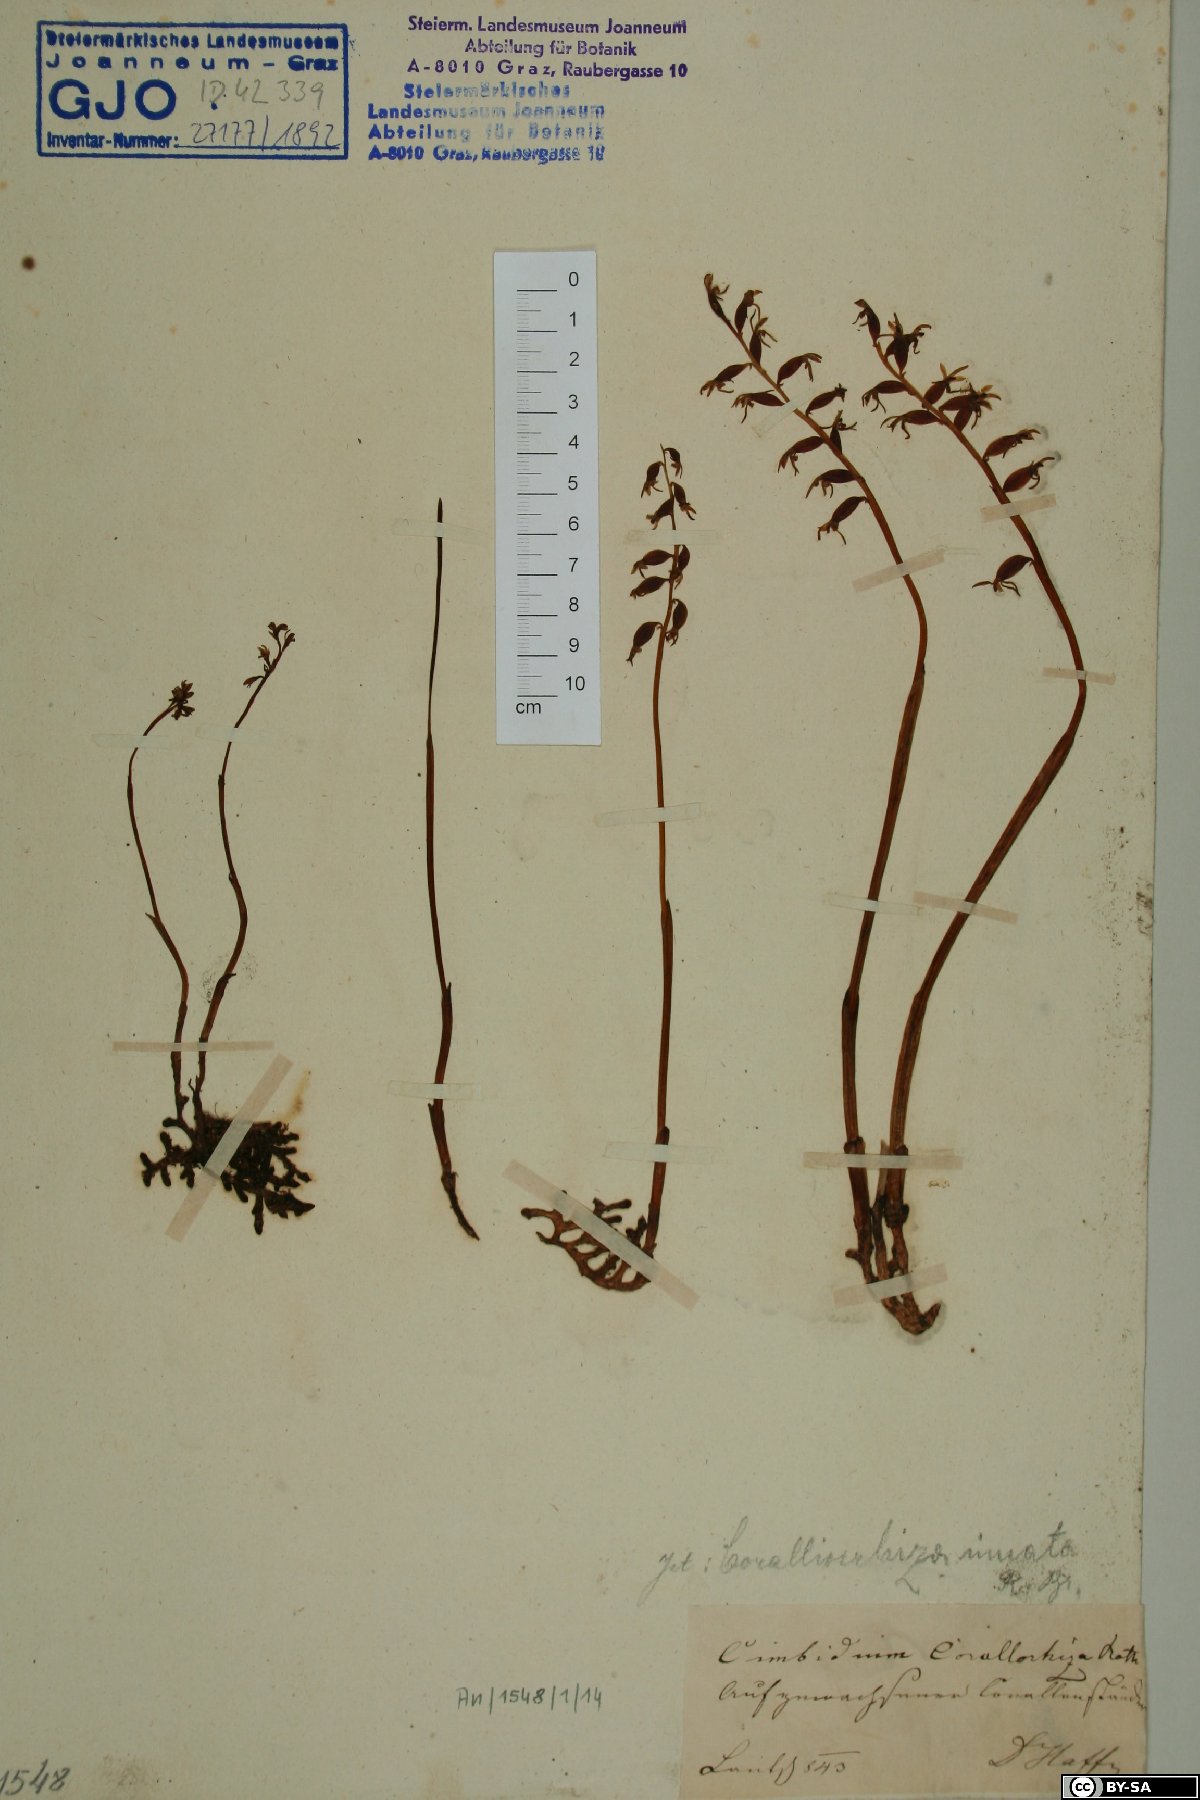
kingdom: Plantae
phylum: Tracheophyta
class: Liliopsida
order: Asparagales
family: Orchidaceae
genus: Corallorhiza
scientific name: Corallorhiza trifida
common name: Yellow coralroot
